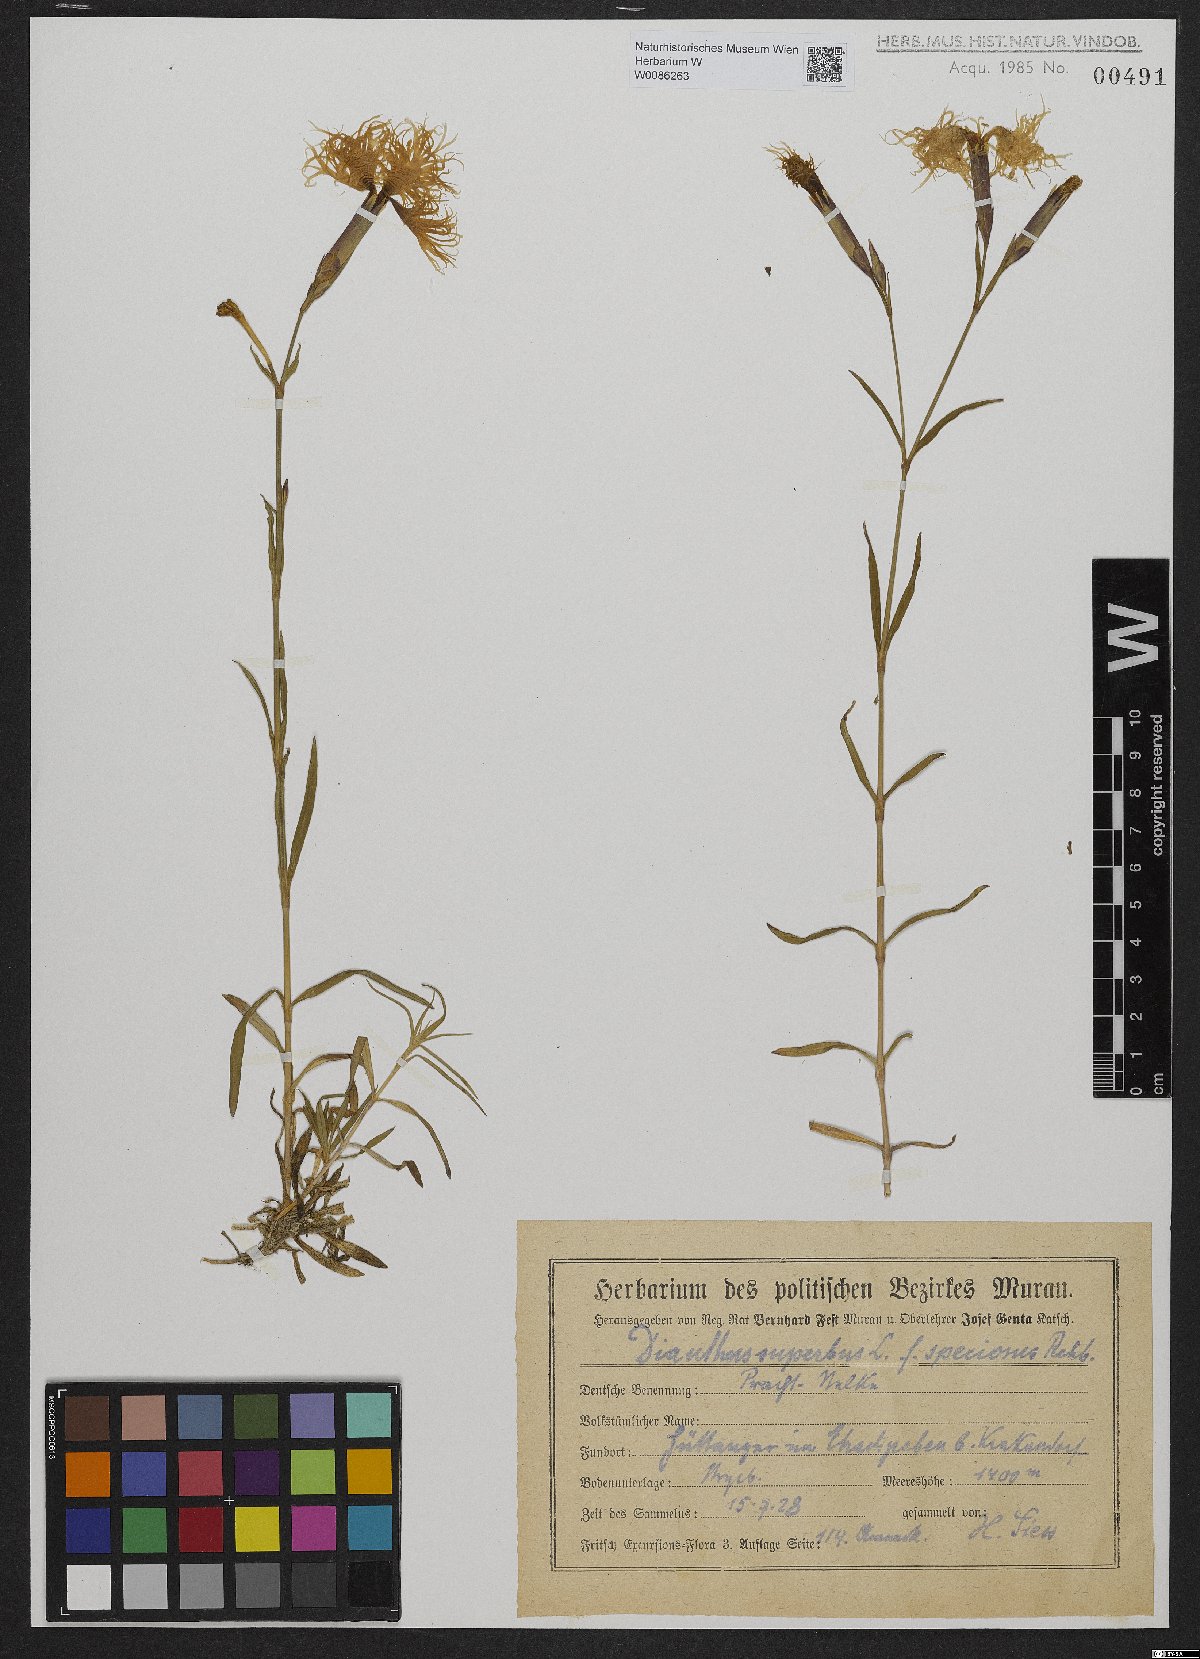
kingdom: Plantae
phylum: Tracheophyta
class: Magnoliopsida
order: Caryophyllales
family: Caryophyllaceae
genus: Dianthus
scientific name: Dianthus superbus
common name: Fringed pink
